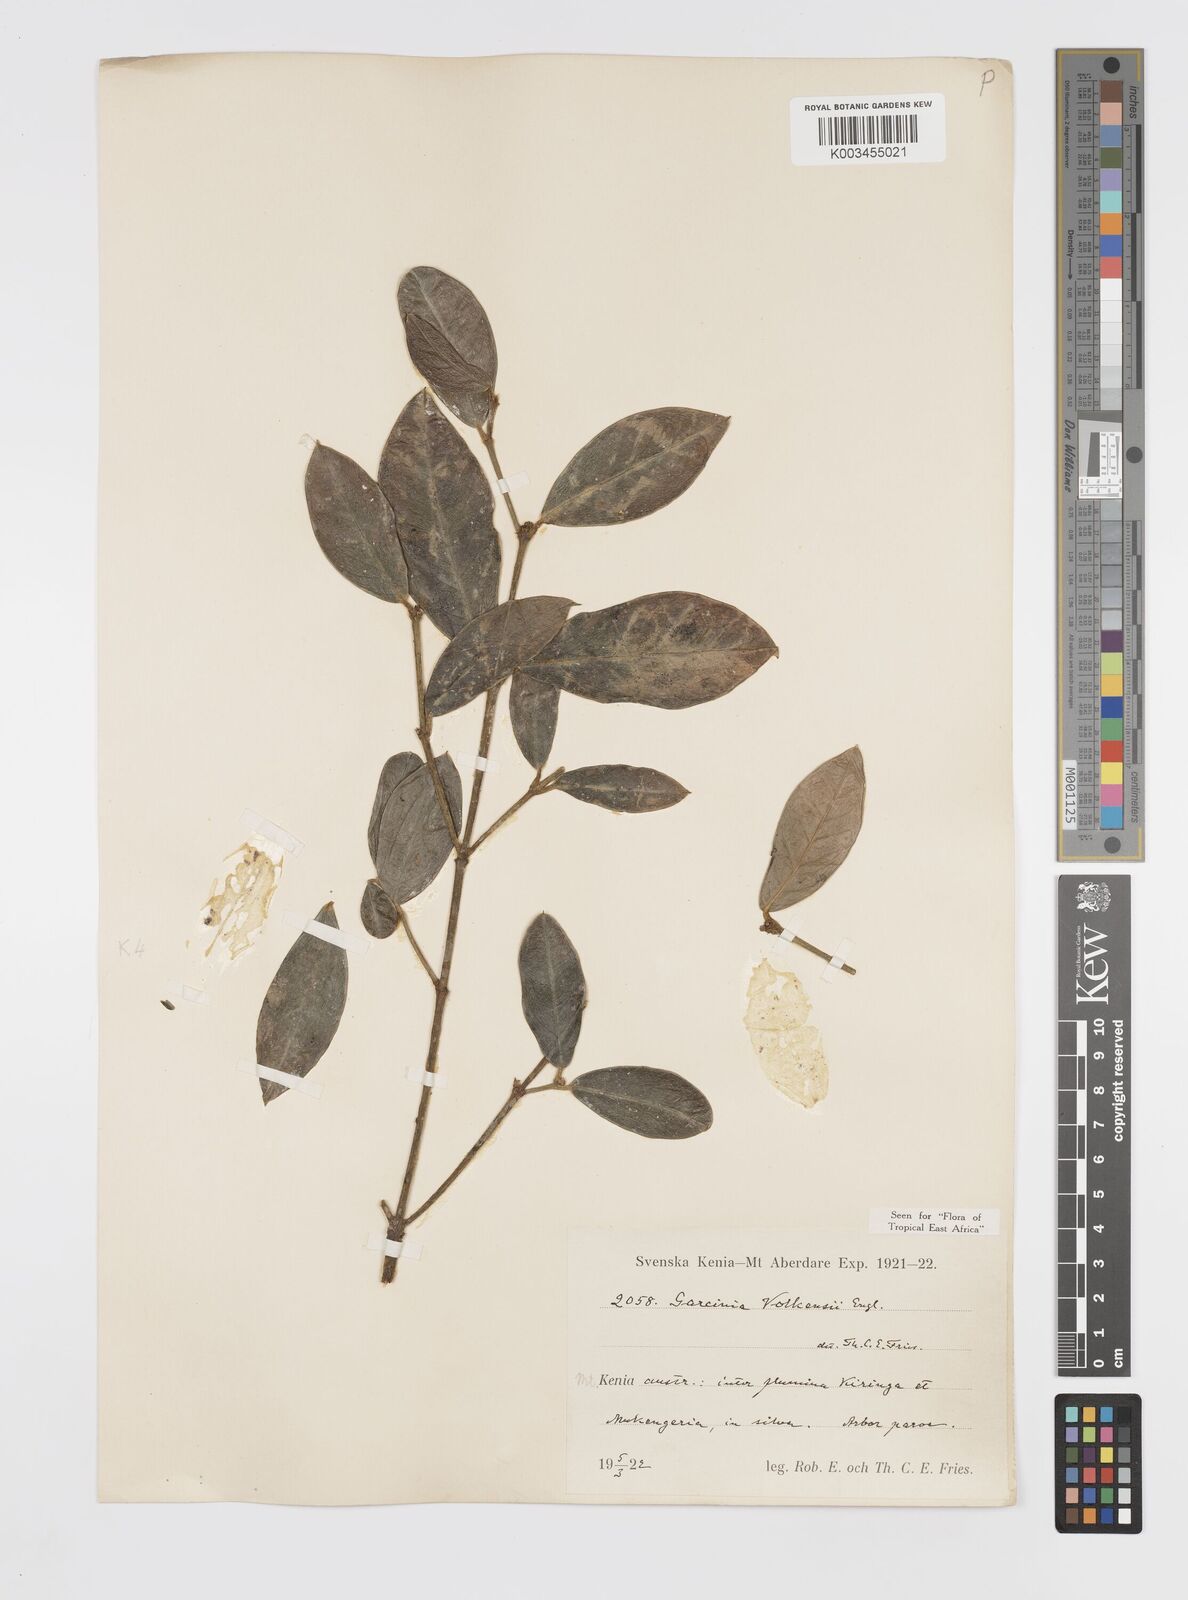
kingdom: Plantae
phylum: Tracheophyta
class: Magnoliopsida
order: Malpighiales
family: Clusiaceae
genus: Garcinia
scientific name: Garcinia volkensii
